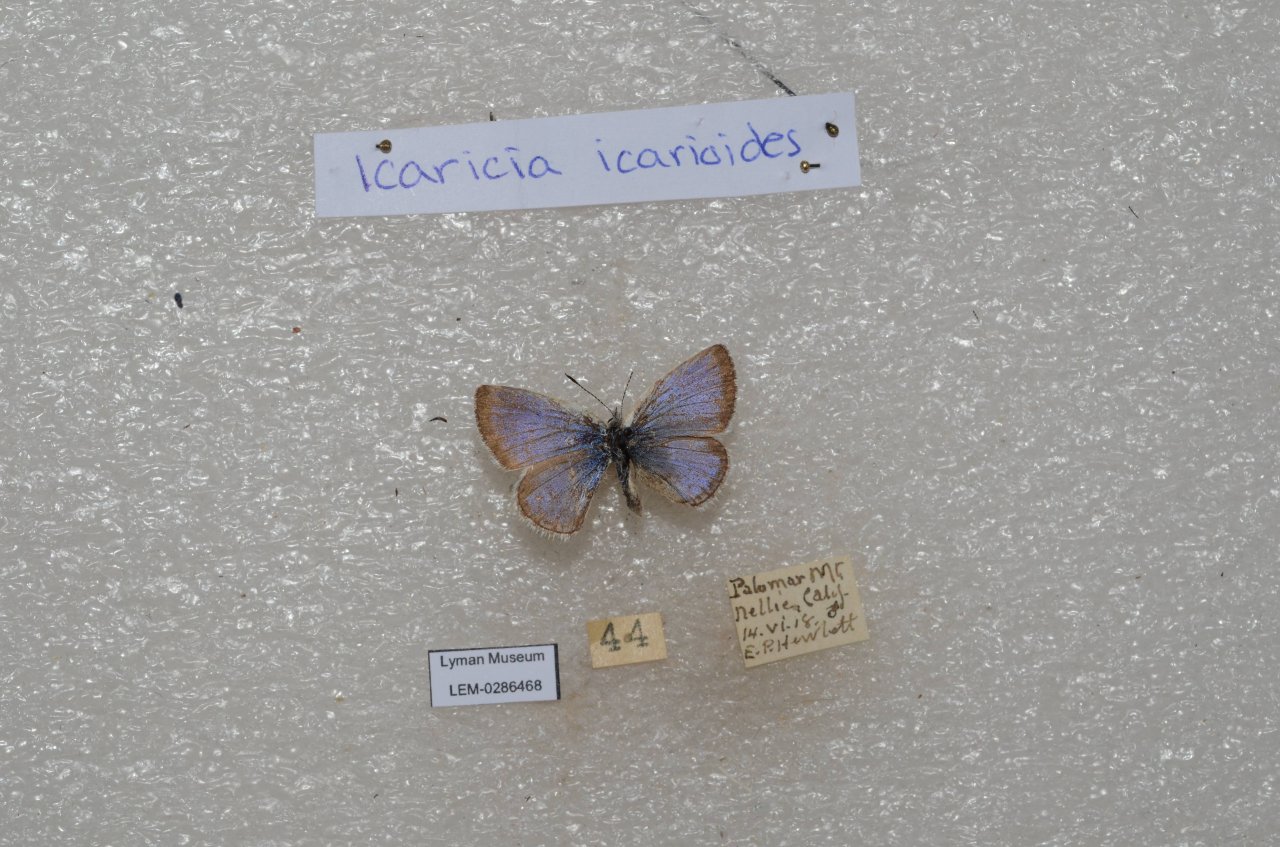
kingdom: Animalia
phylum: Arthropoda
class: Insecta
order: Lepidoptera
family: Lycaenidae
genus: Icaricia
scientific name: Icaricia icarioides
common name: Boisduval's Blue
